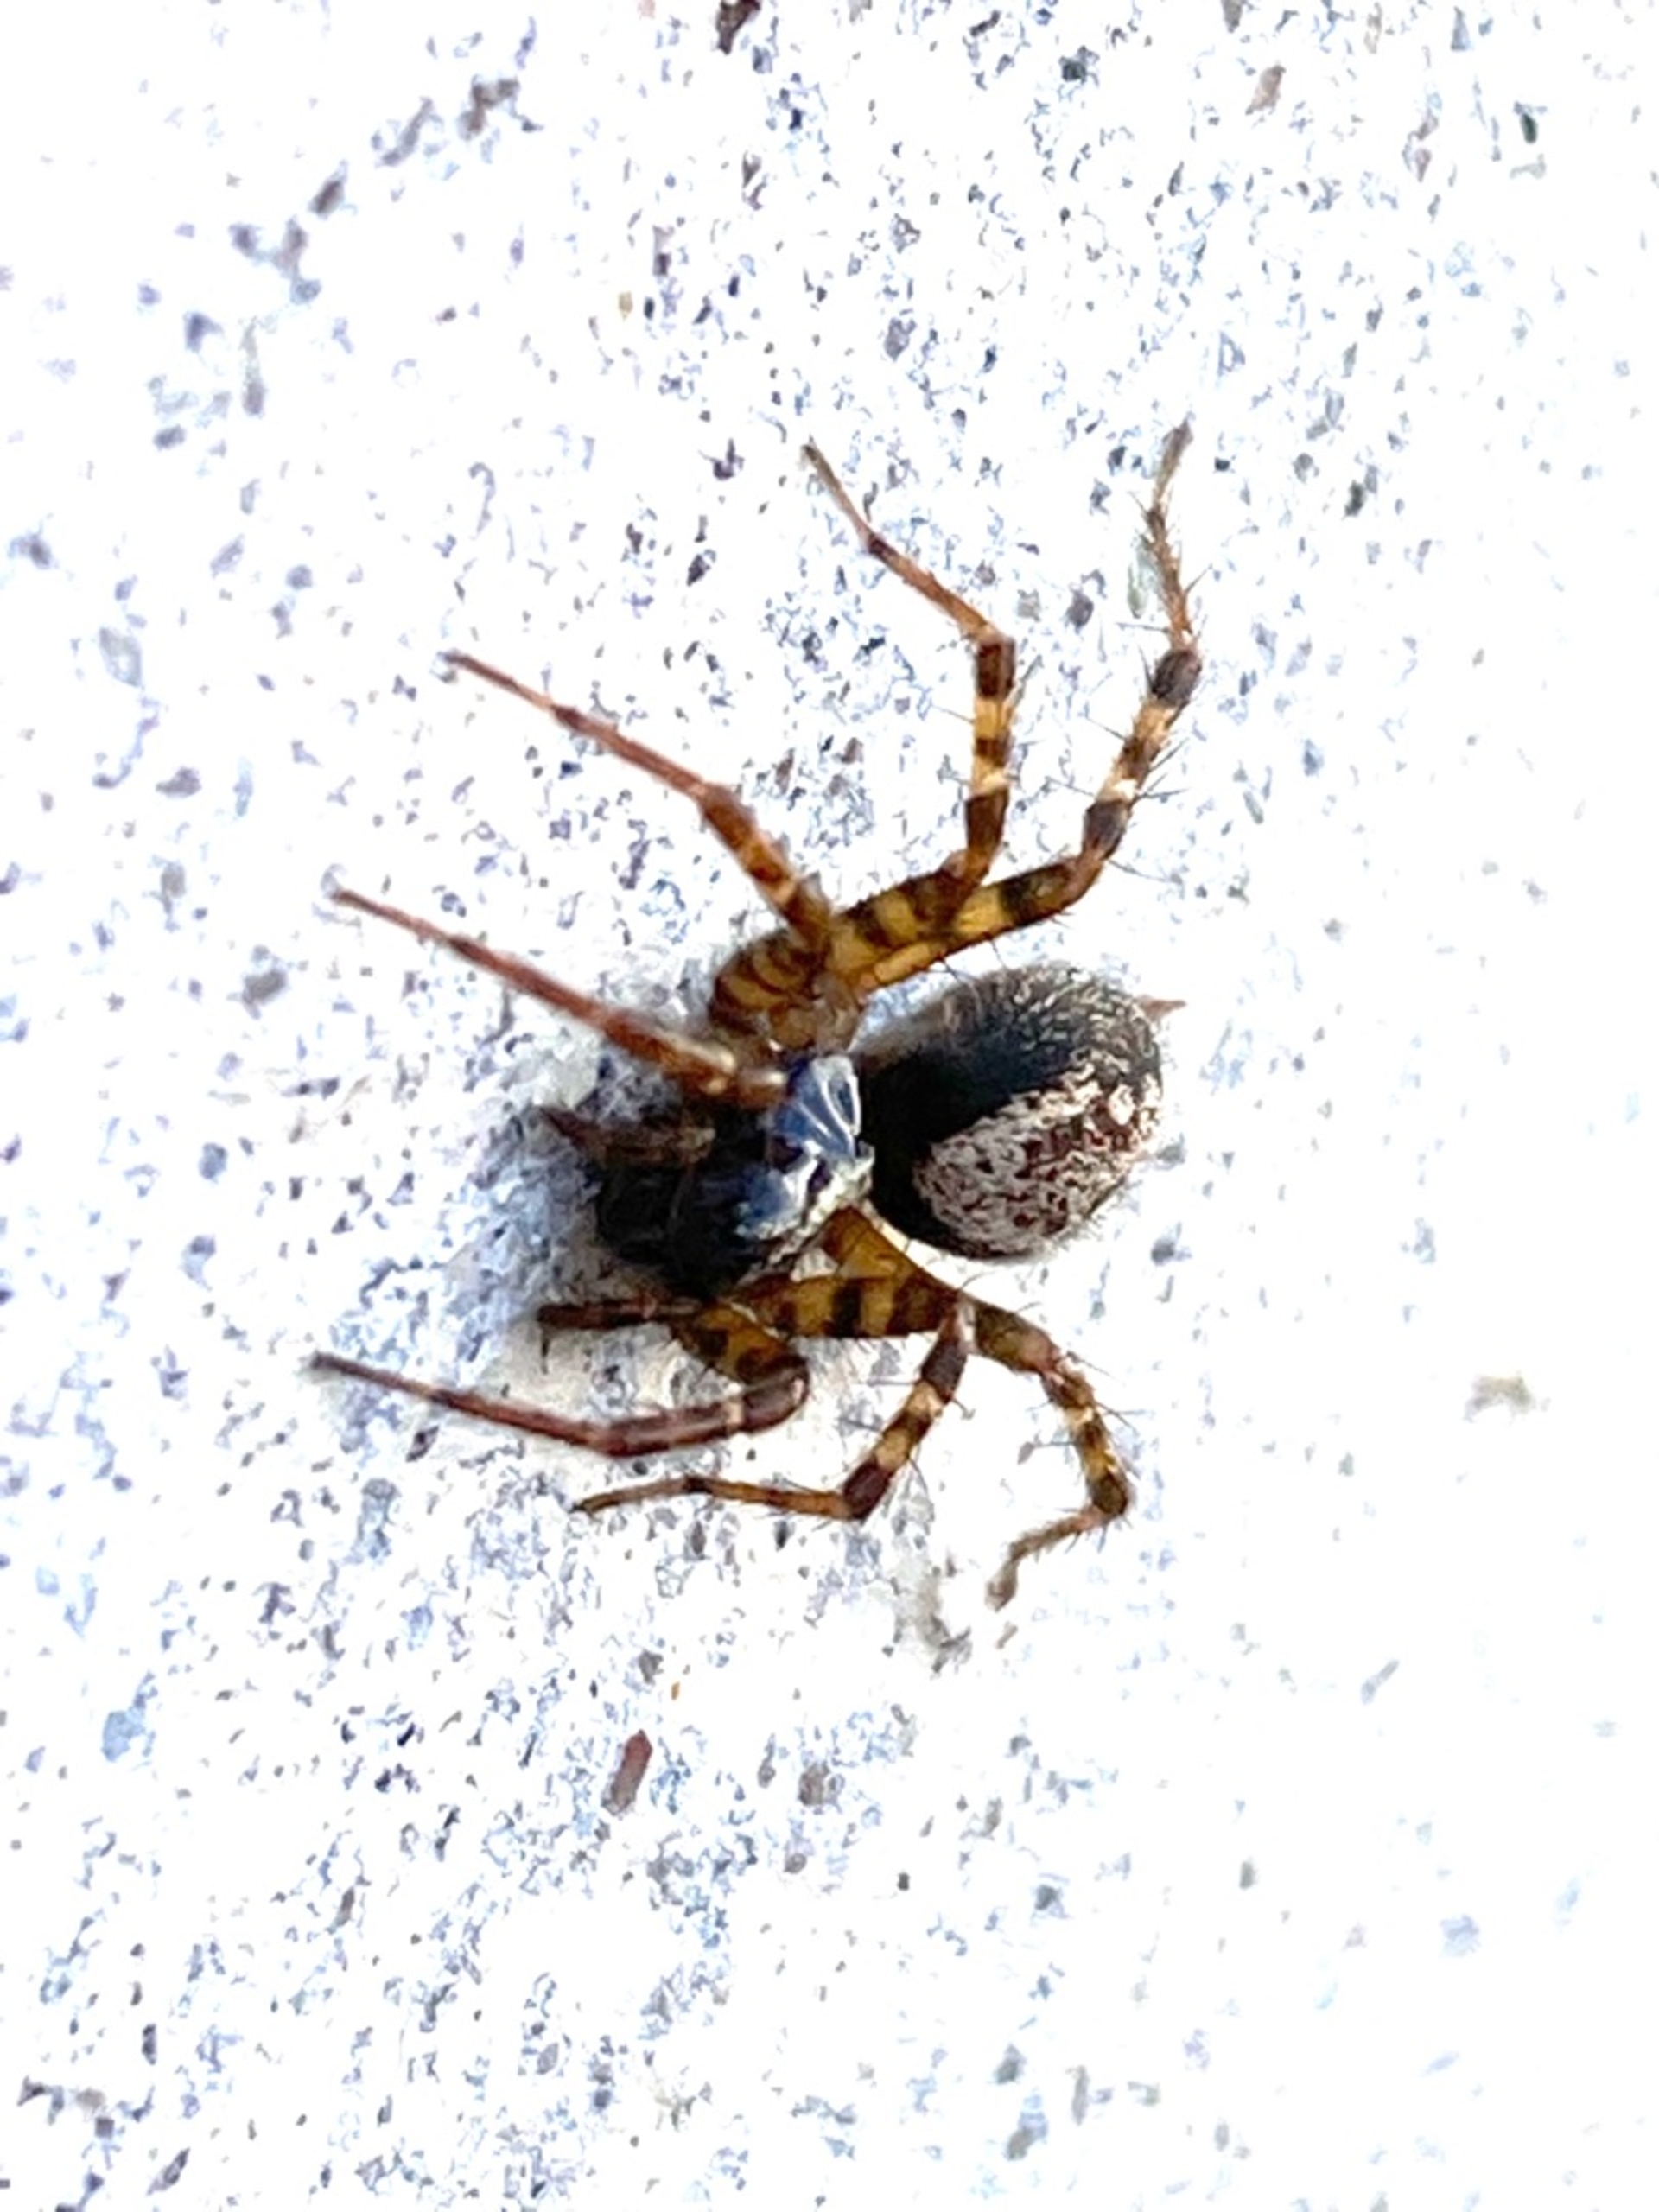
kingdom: Animalia
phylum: Arthropoda
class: Arachnida
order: Araneae
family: Agelenidae
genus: Textrix
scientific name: Textrix denticulata
